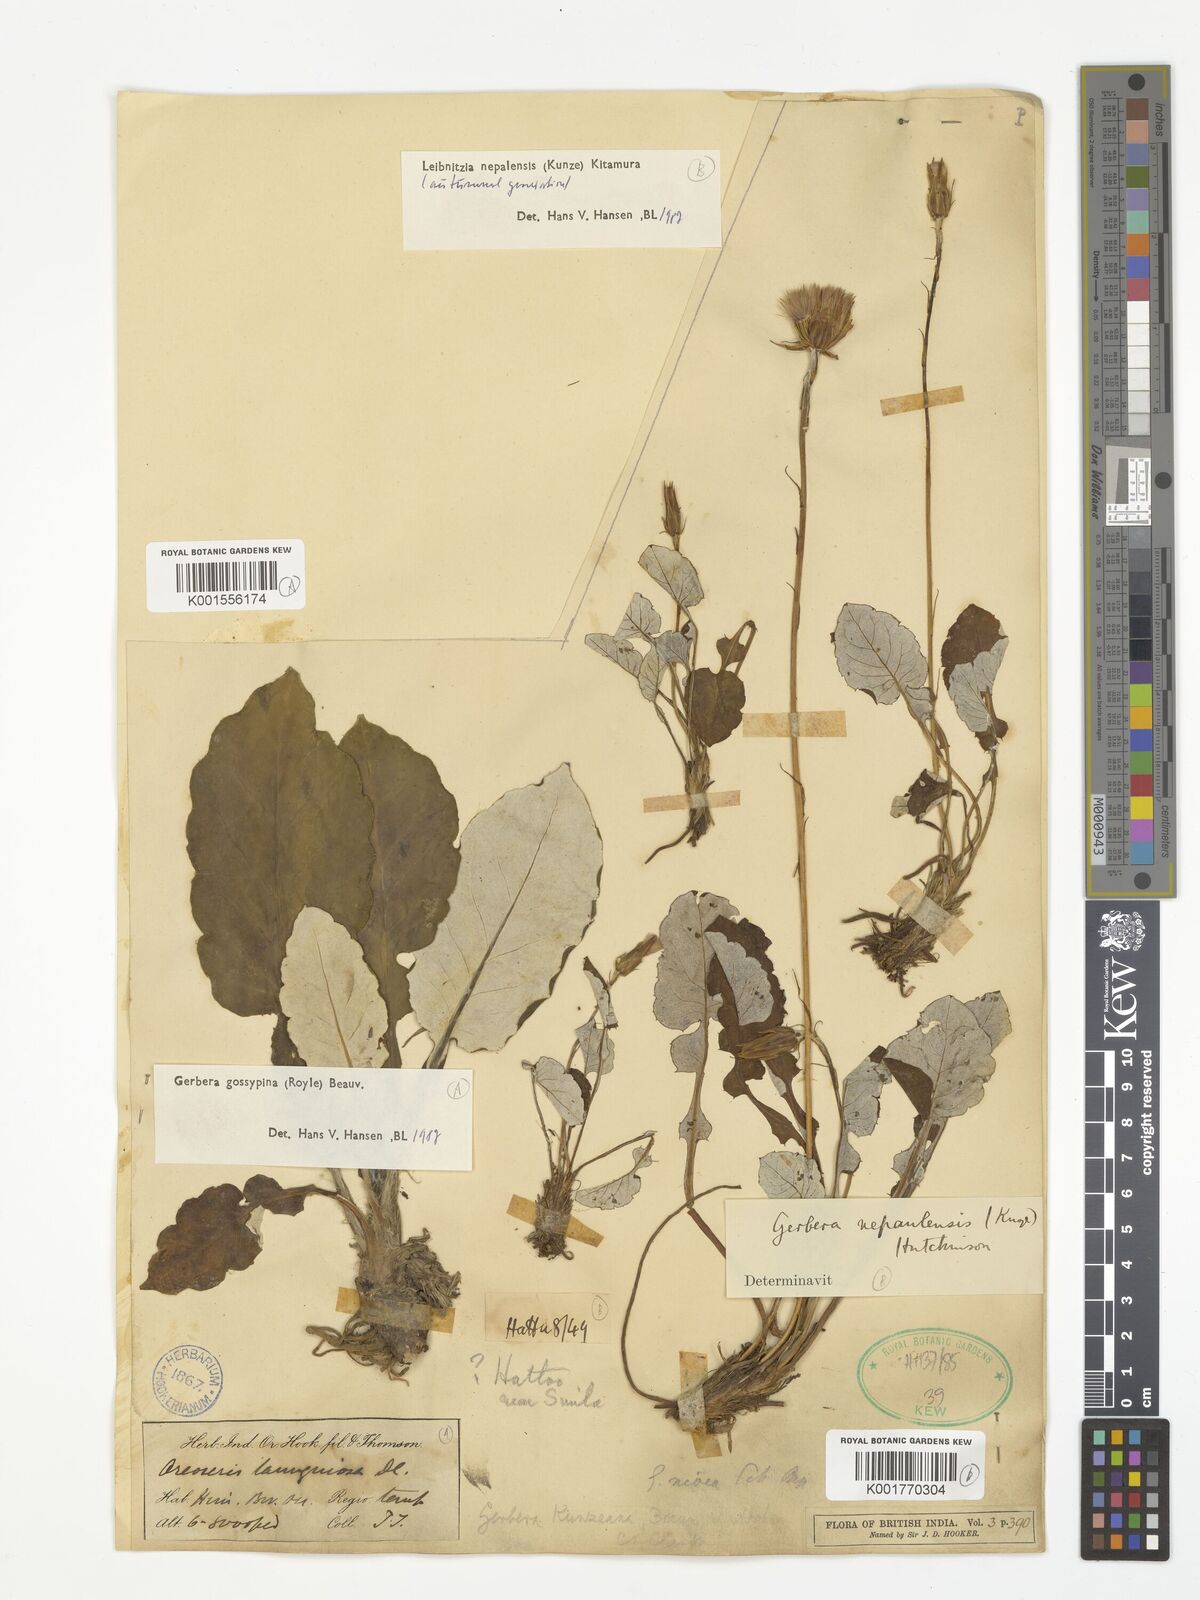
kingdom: Plantae
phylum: Tracheophyta
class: Magnoliopsida
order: Asterales
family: Asteraceae
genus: Oreoseris
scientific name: Oreoseris gossypina
